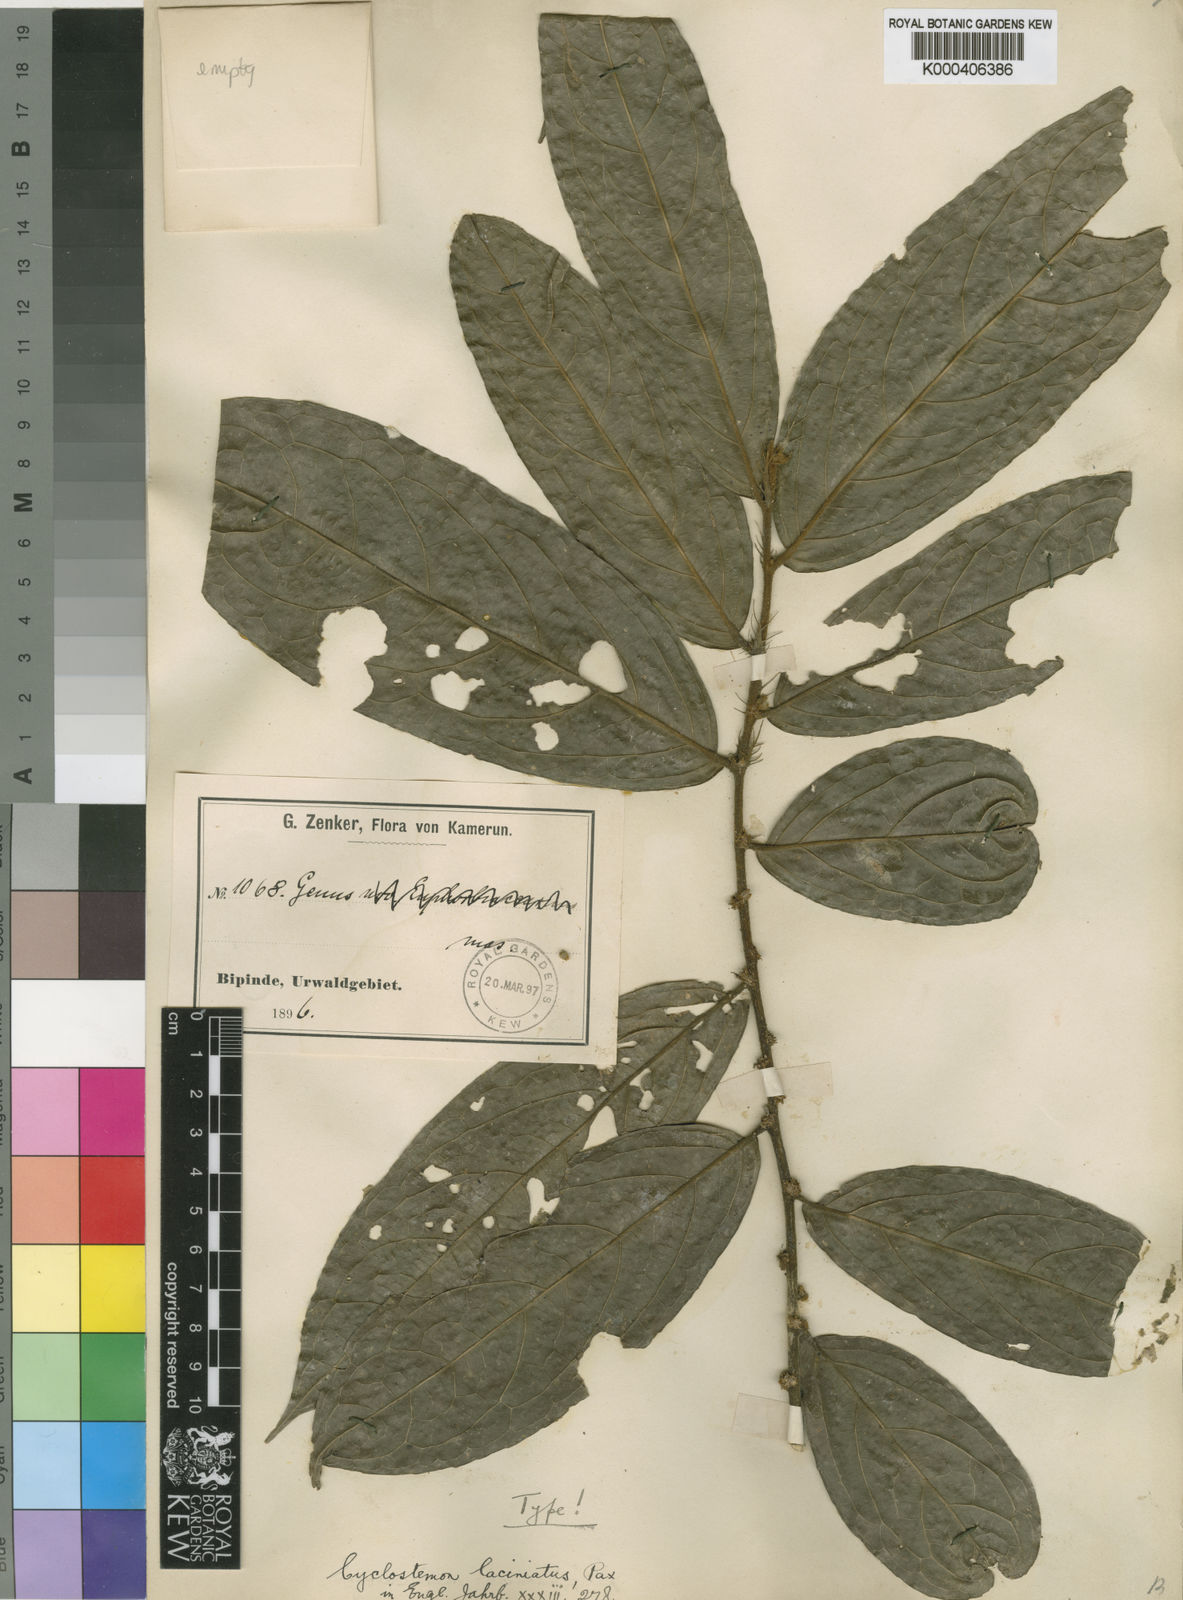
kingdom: Plantae
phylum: Tracheophyta
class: Magnoliopsida
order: Malpighiales
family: Putranjivaceae
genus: Drypetes
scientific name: Drypetes laciniata
